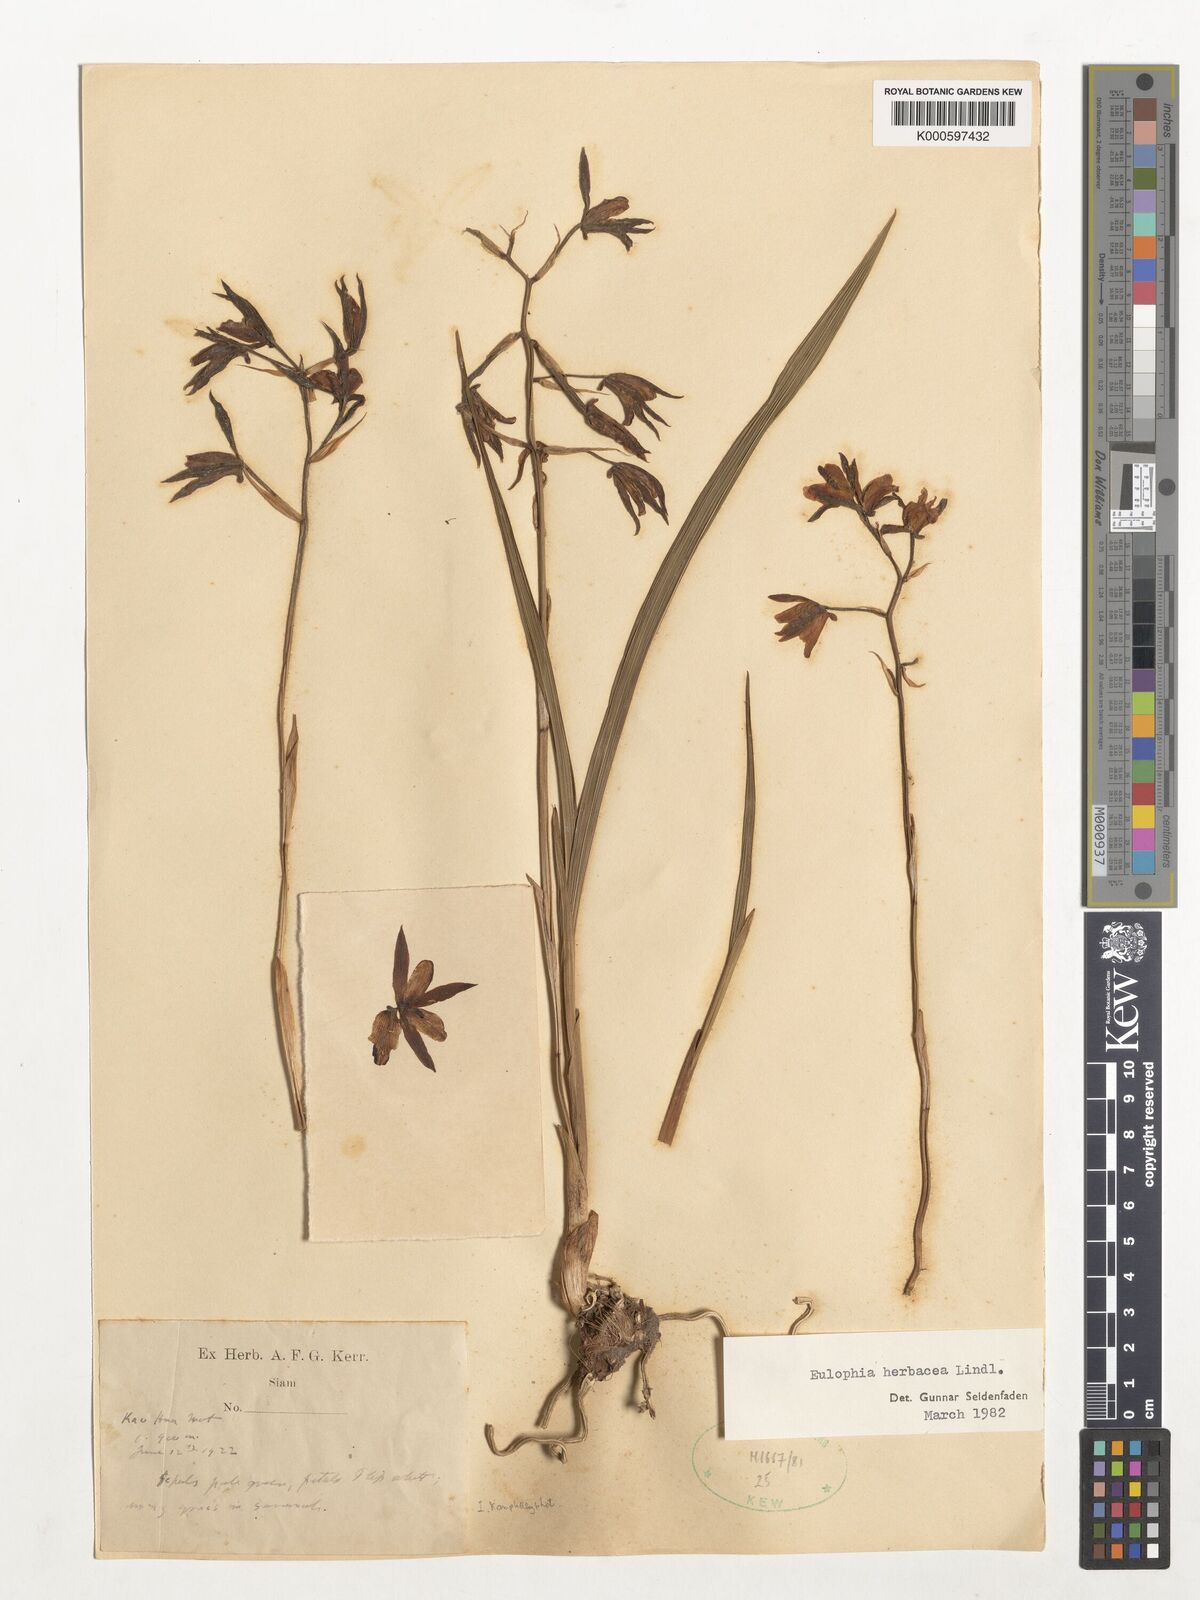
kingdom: Plantae
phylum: Tracheophyta
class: Liliopsida
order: Asparagales
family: Orchidaceae
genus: Eulophia
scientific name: Eulophia herbacea
